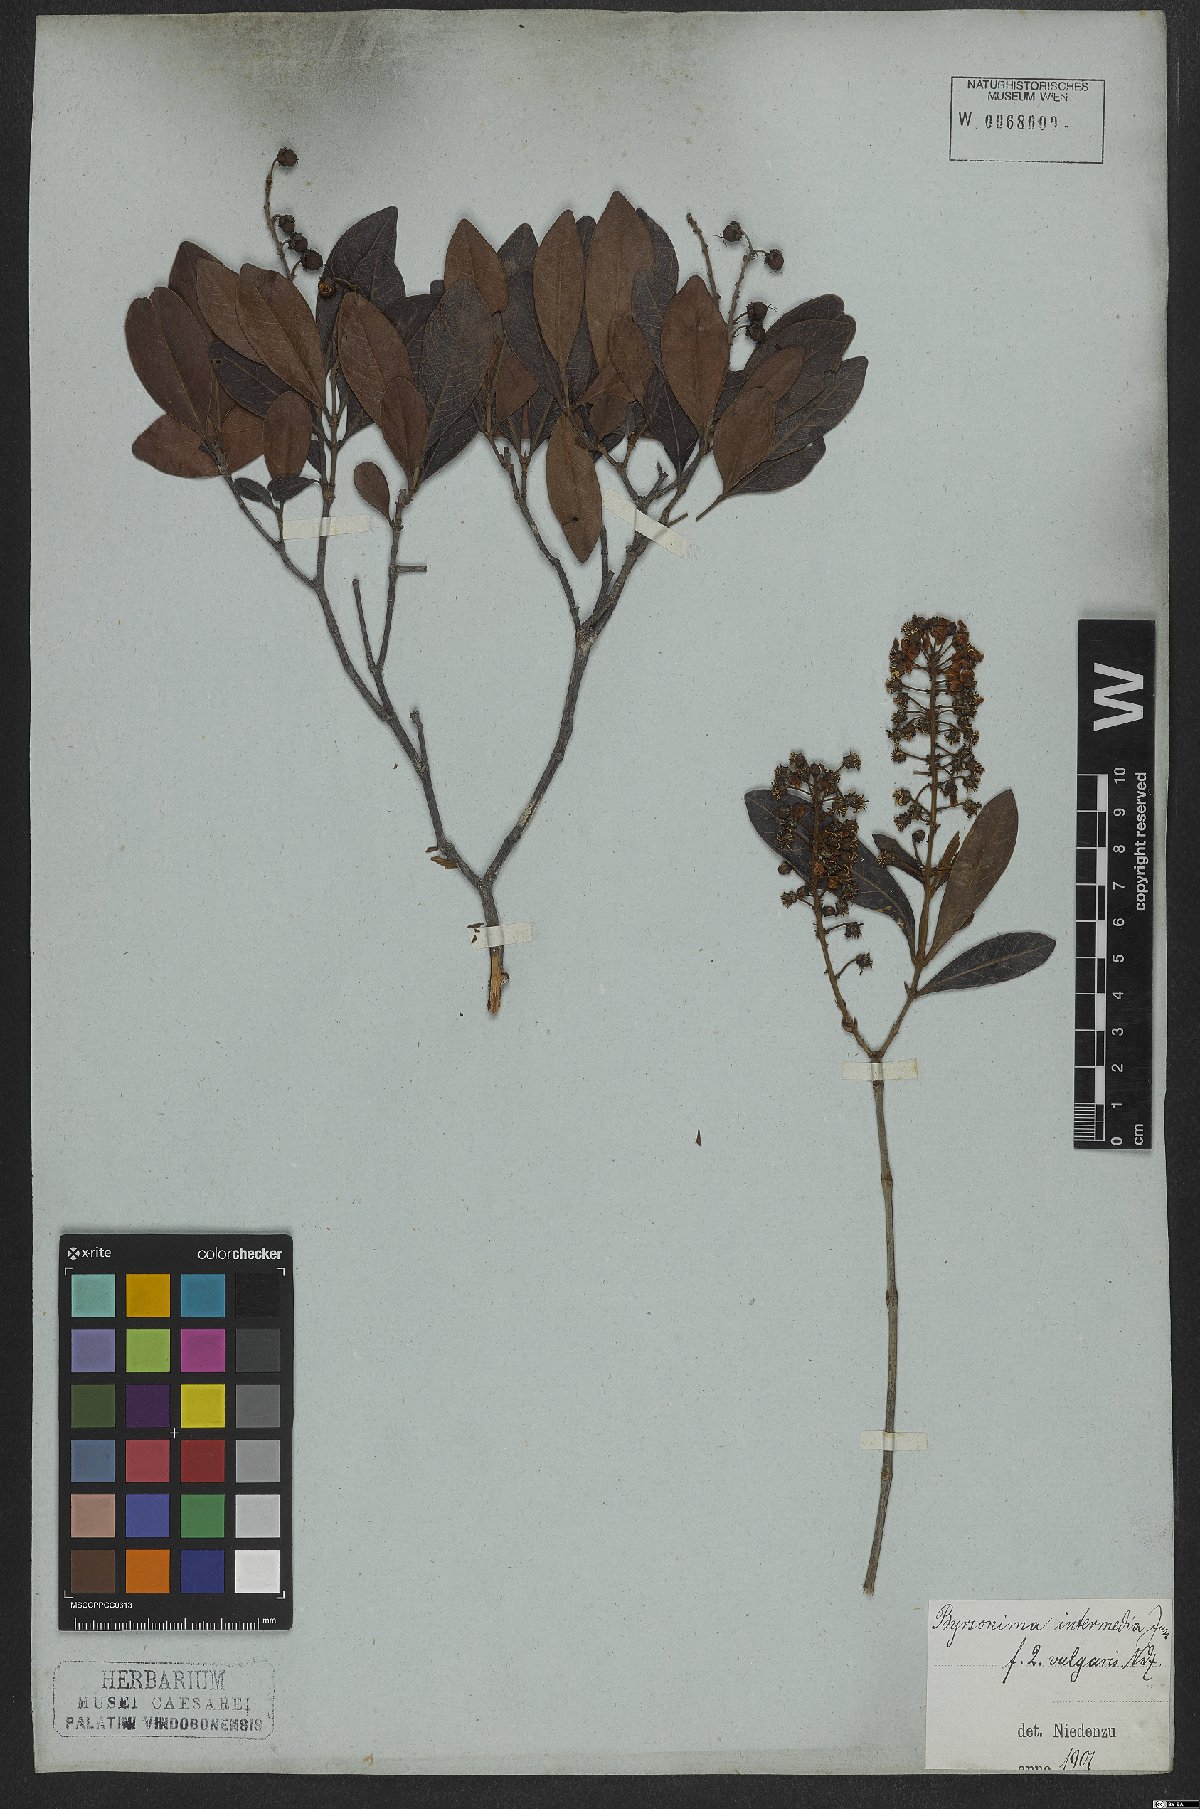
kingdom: Plantae
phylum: Tracheophyta
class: Magnoliopsida
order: Malpighiales
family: Malpighiaceae
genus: Byrsonima
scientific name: Byrsonima intermedia
